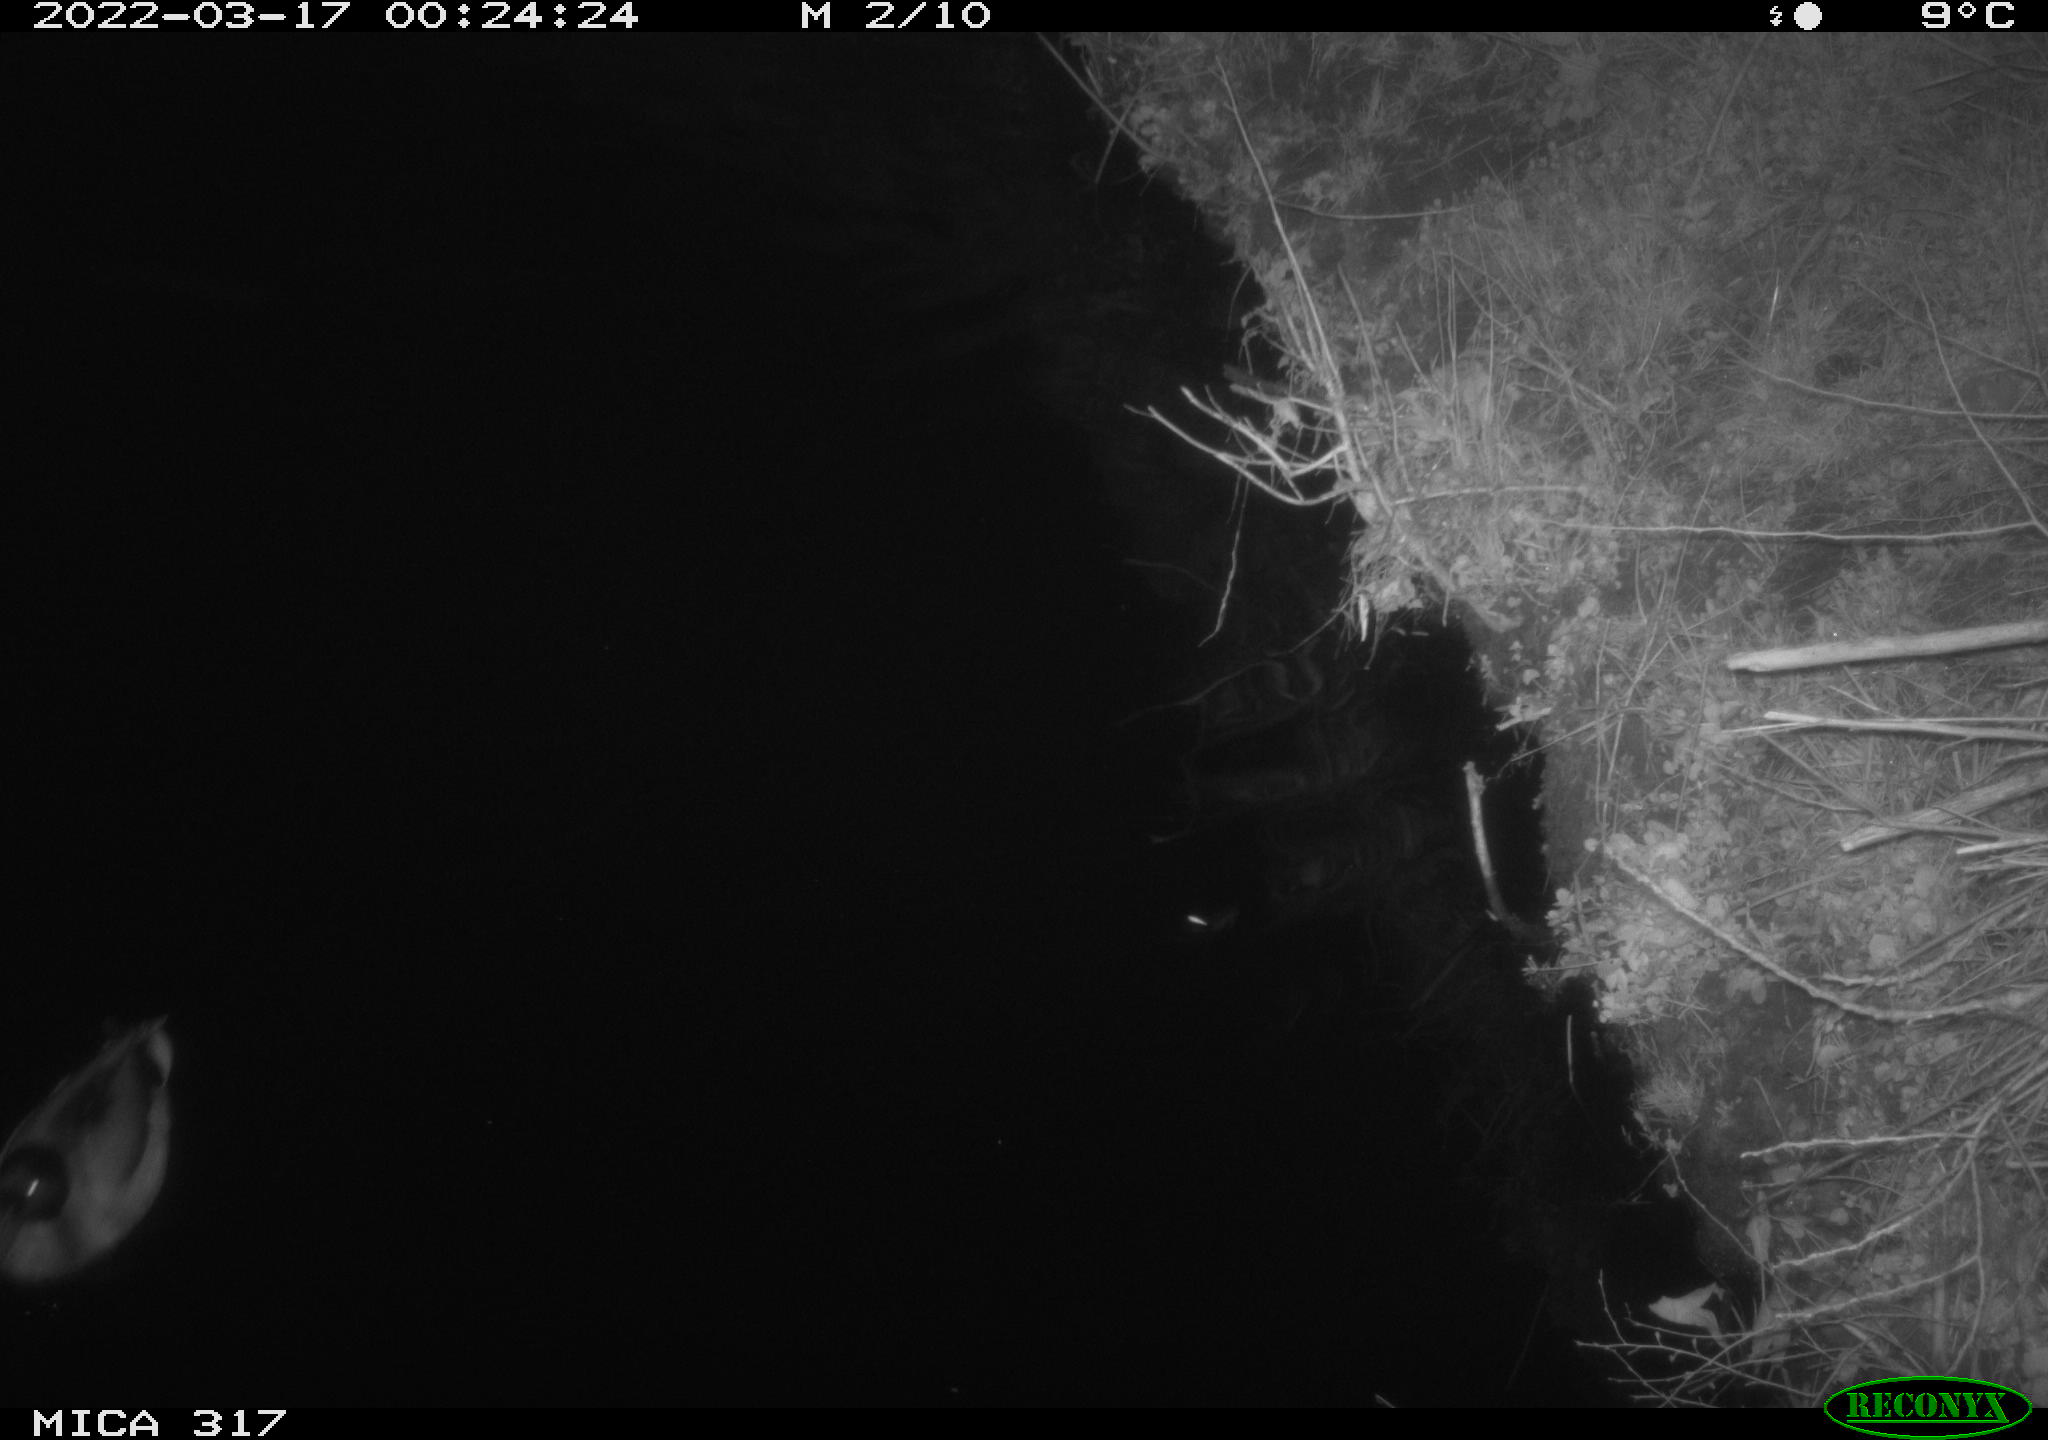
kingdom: Animalia
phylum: Chordata
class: Aves
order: Anseriformes
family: Anatidae
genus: Anas
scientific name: Anas platyrhynchos
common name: Mallard
